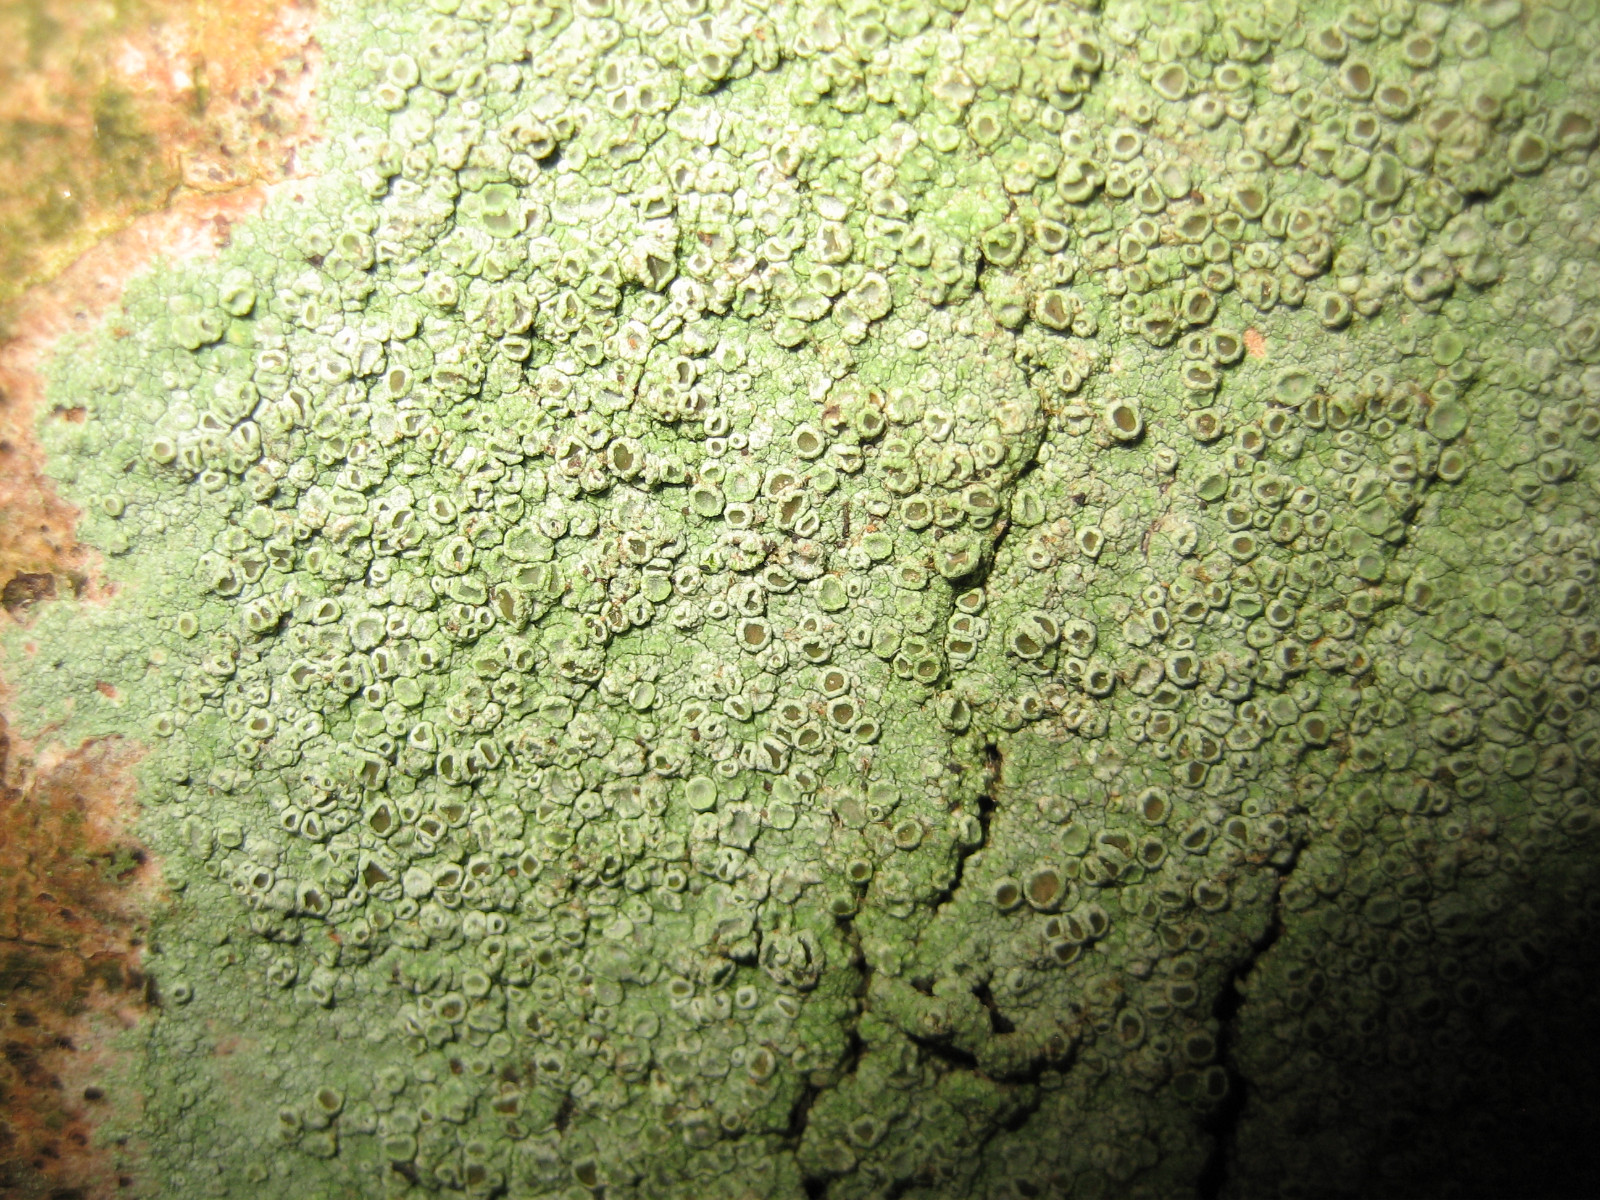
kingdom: Fungi
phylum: Ascomycota
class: Lecanoromycetes
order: Lecanorales
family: Lecanoraceae
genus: Lecanora
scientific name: Lecanora
